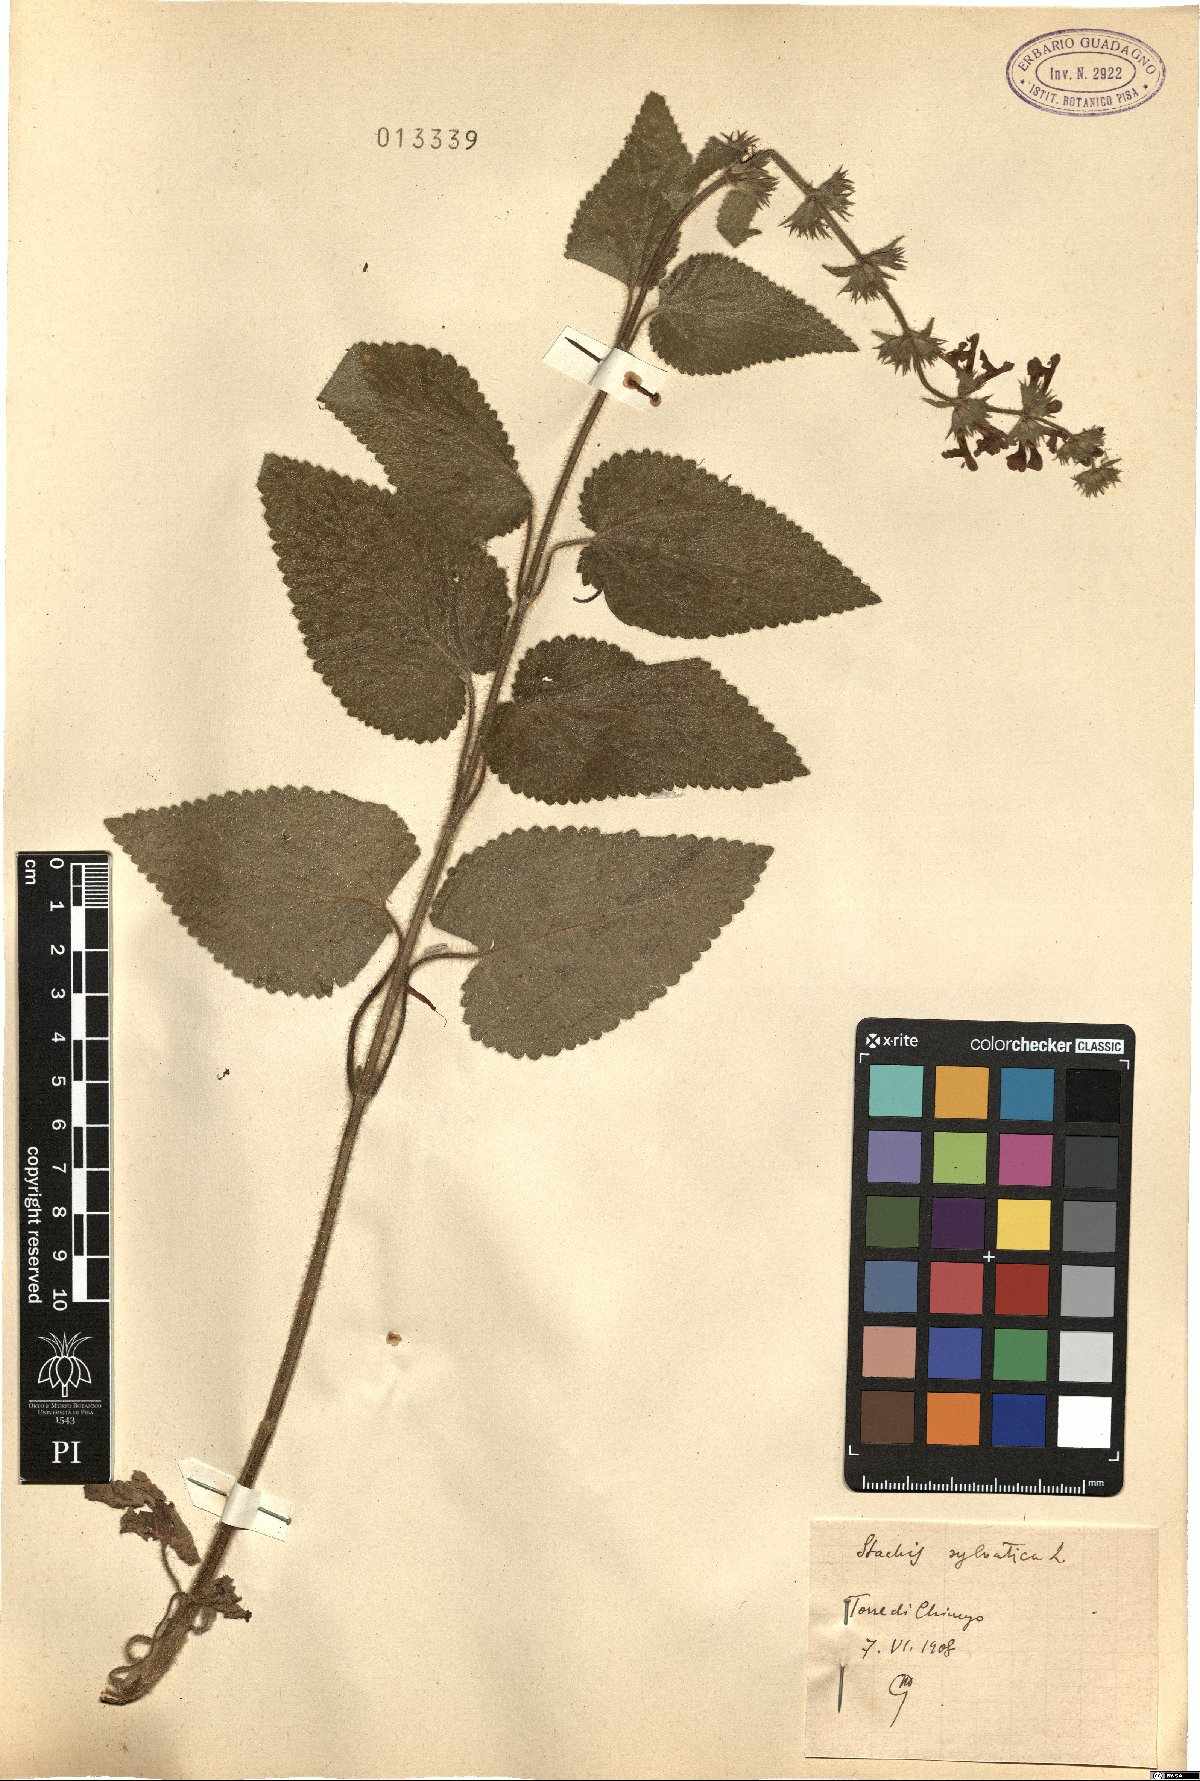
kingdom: Plantae
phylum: Tracheophyta
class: Magnoliopsida
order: Lamiales
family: Lamiaceae
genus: Stachys
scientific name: Stachys sylvatica
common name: Hedge woundwort
